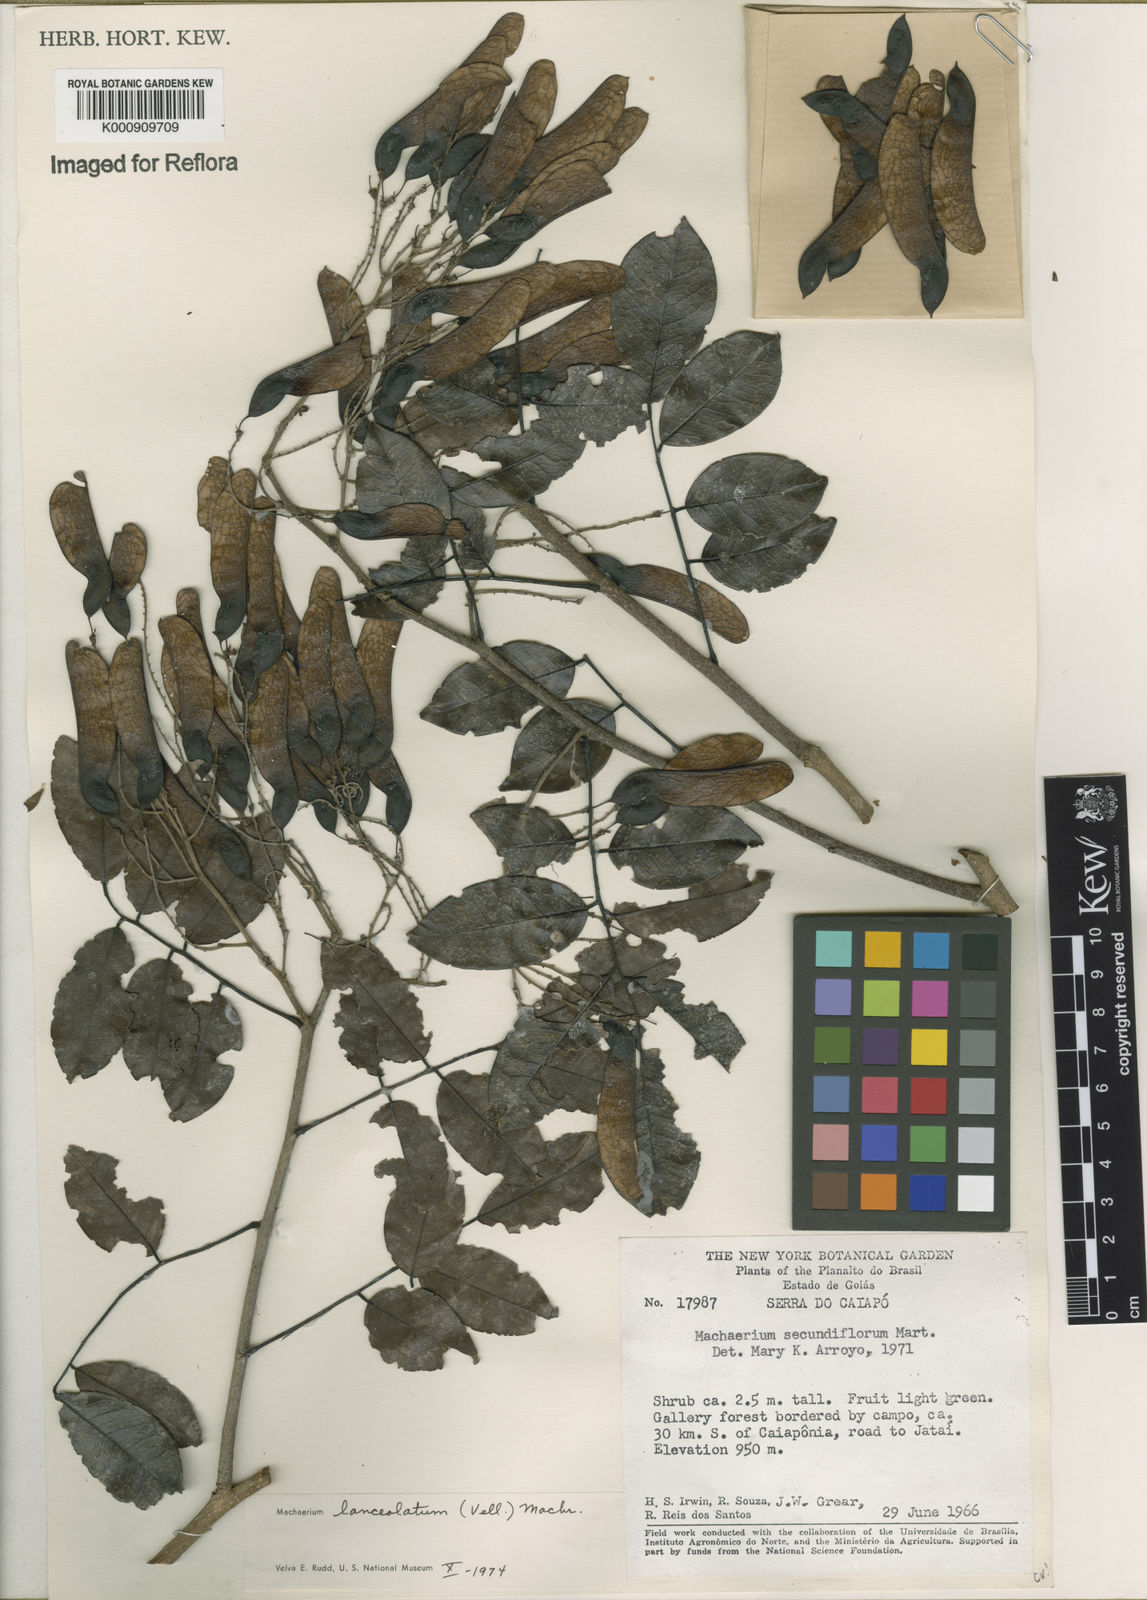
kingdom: Plantae
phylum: Tracheophyta
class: Magnoliopsida
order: Fabales
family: Fabaceae
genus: Machaerium
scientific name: Machaerium lanceolatum
